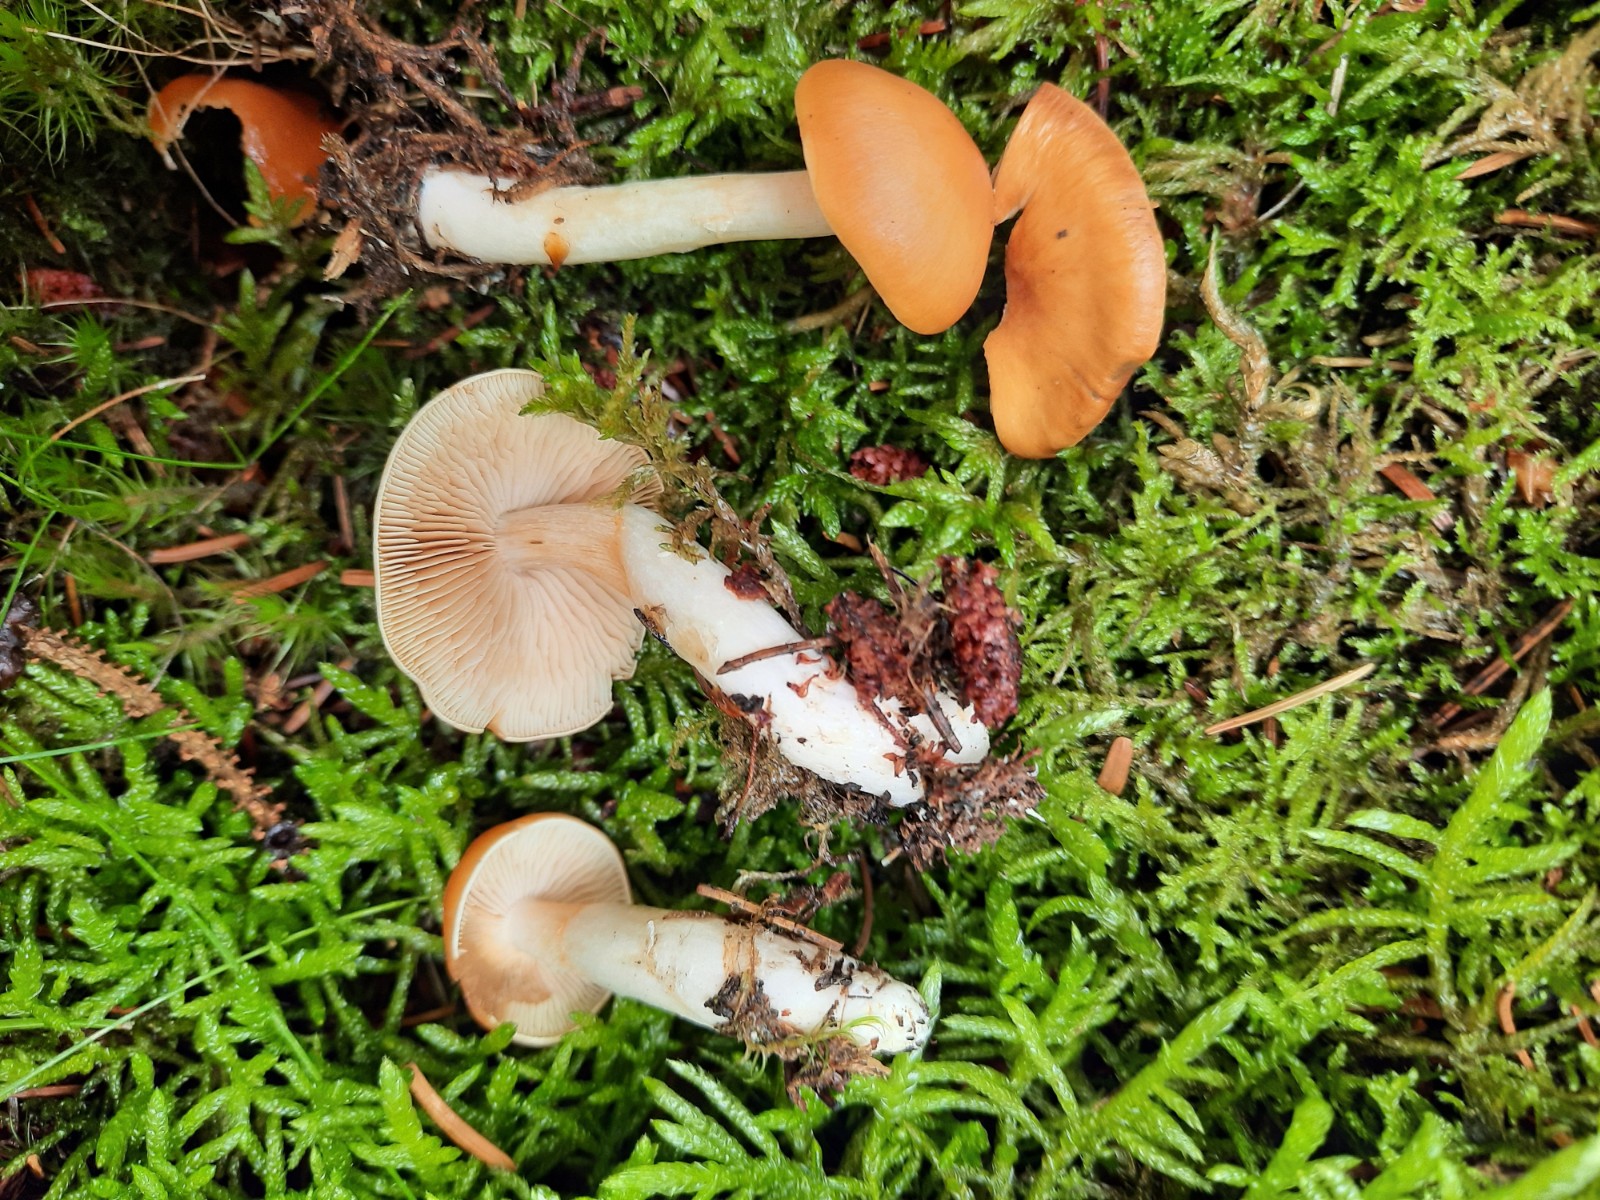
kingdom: Fungi
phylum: Basidiomycota
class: Agaricomycetes
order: Agaricales
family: Cortinariaceae
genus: Cortinarius
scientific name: Cortinarius
